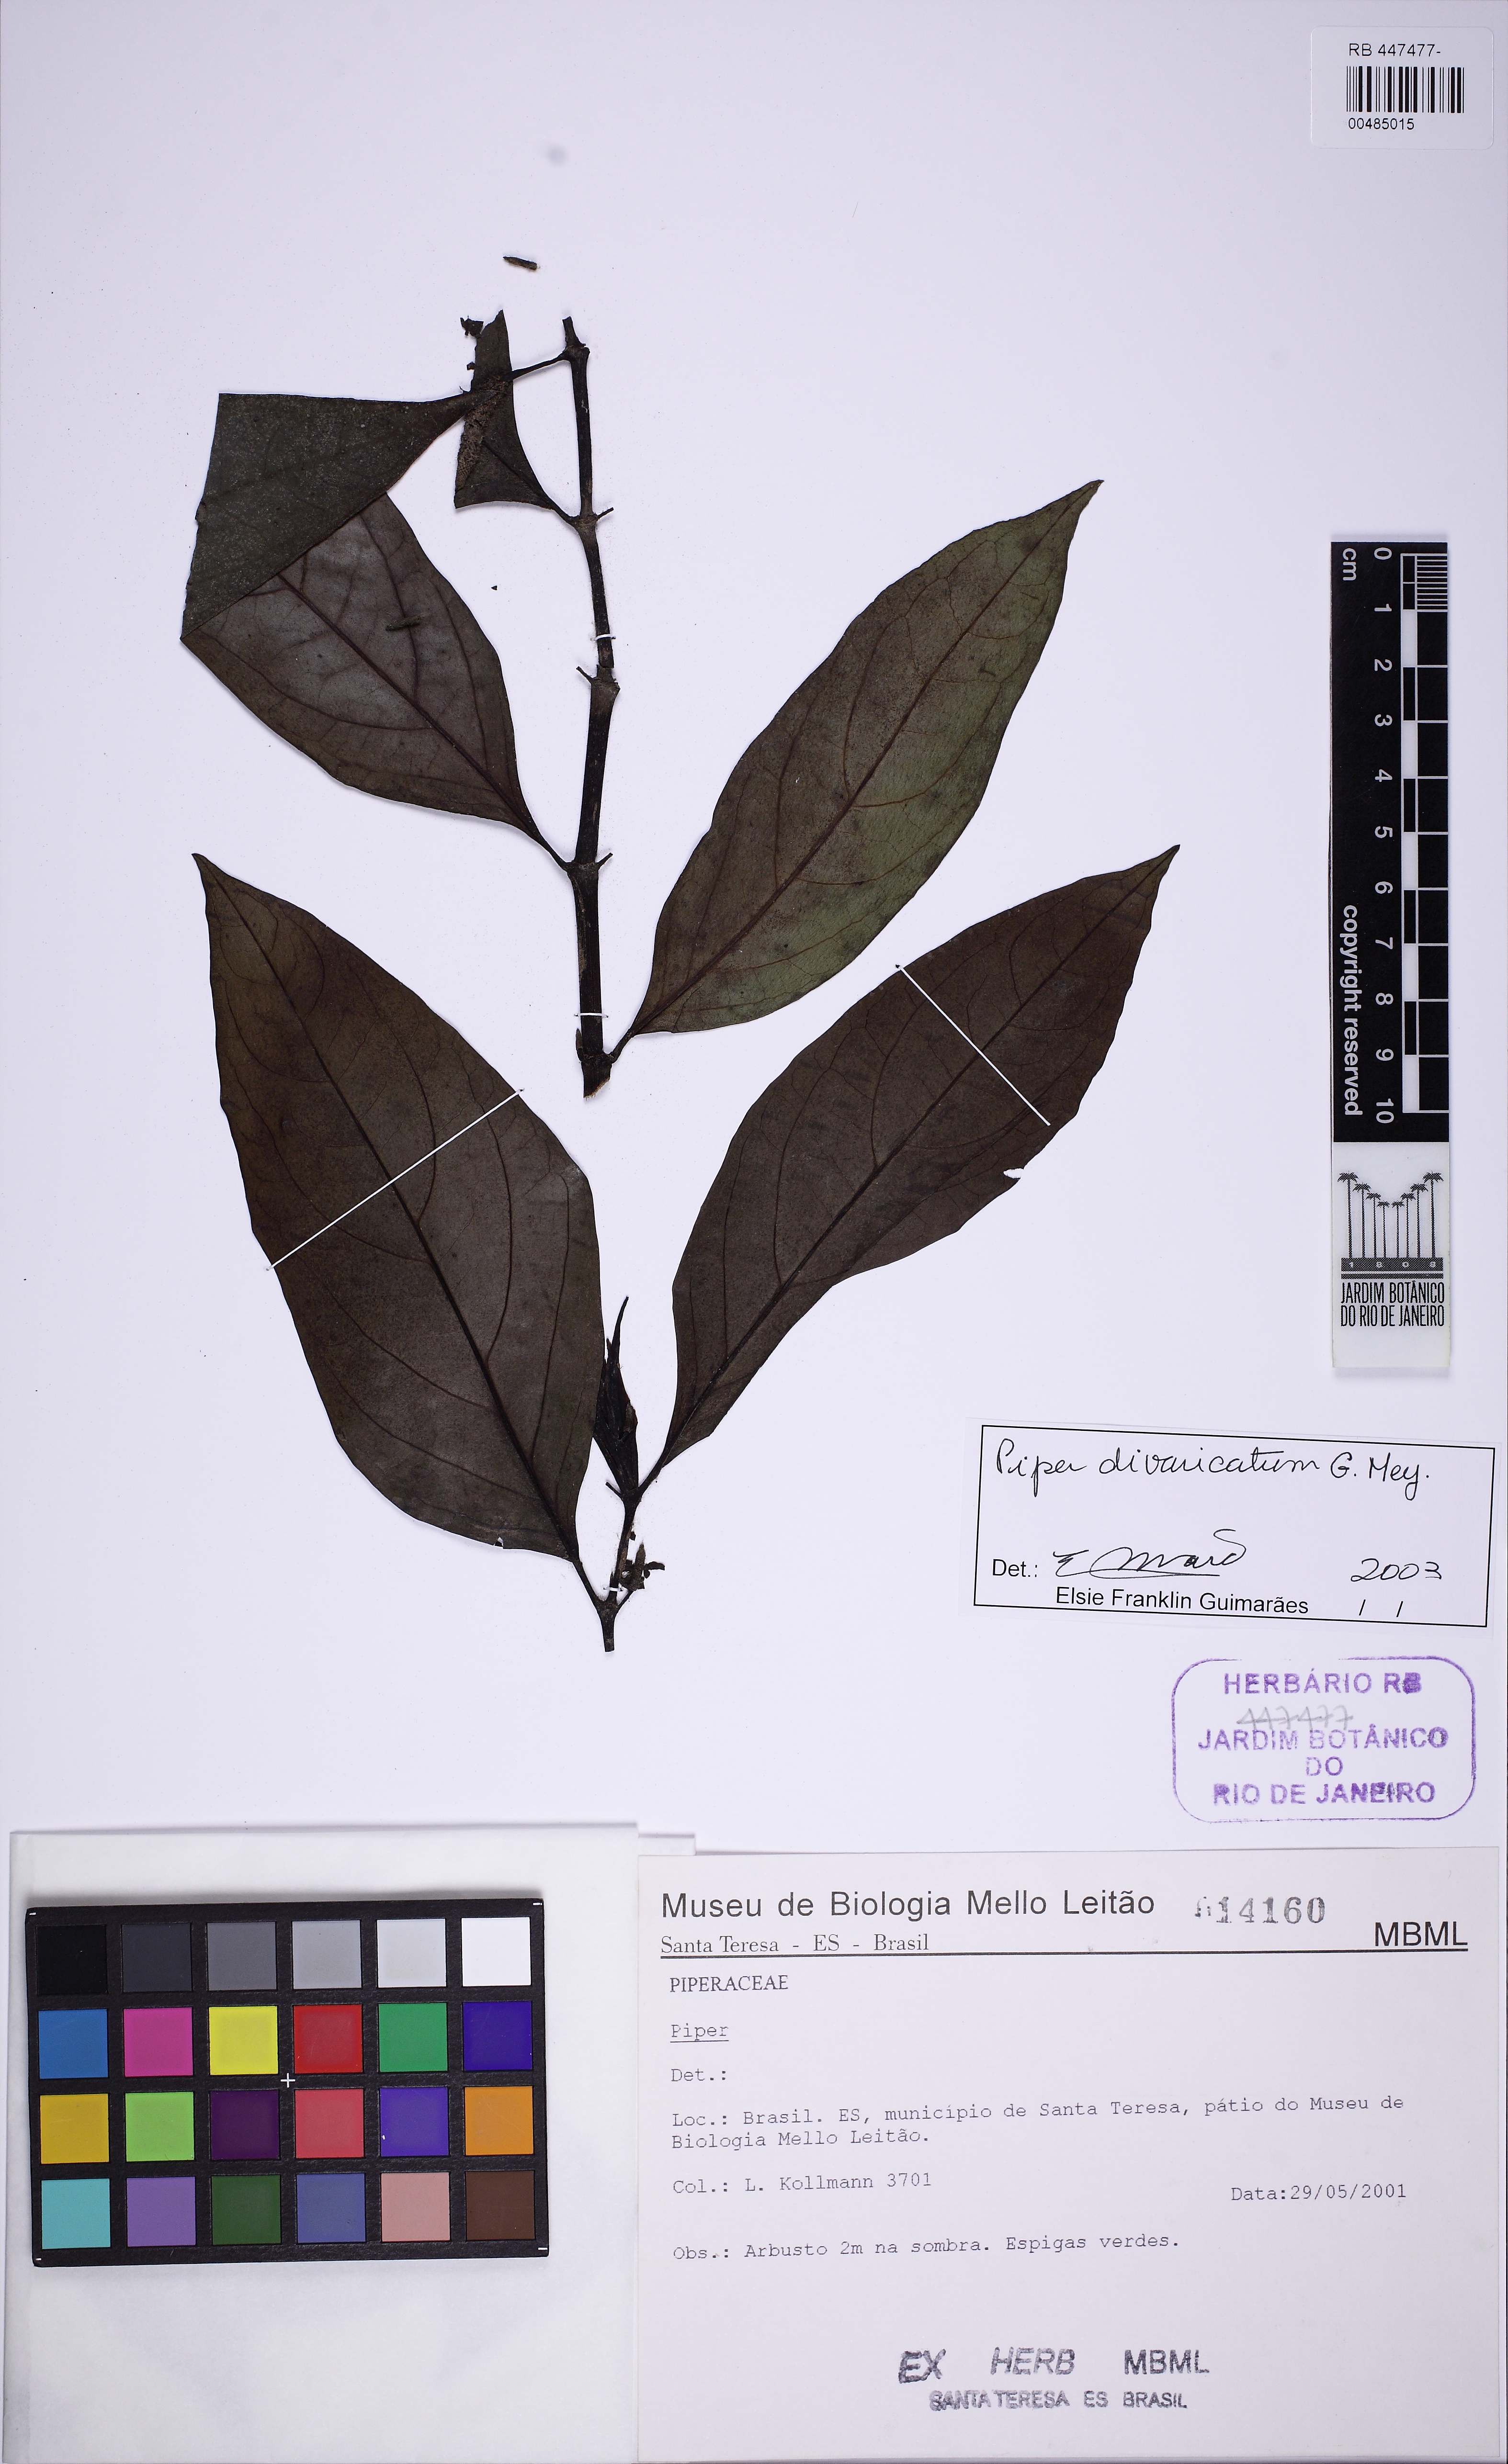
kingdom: Plantae
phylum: Tracheophyta
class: Magnoliopsida
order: Piperales
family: Piperaceae
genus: Piper
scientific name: Piper divaricatum
